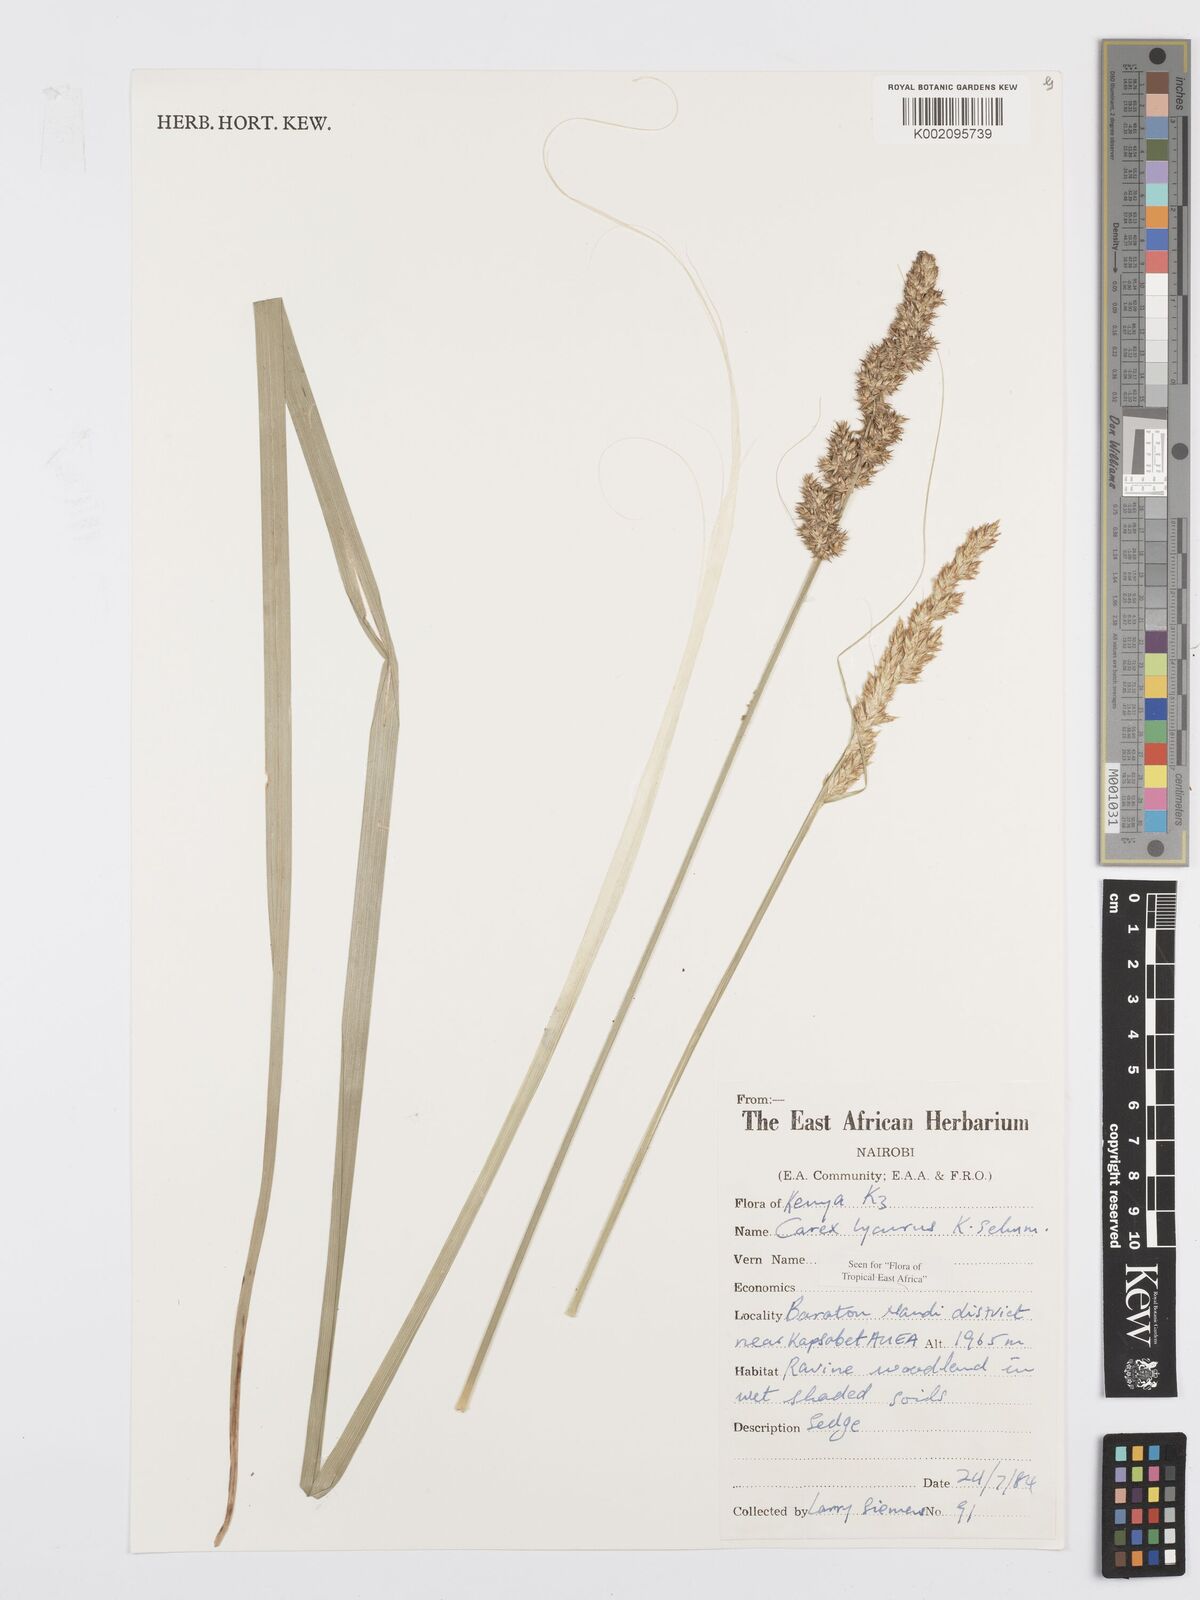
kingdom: Plantae
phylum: Tracheophyta
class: Liliopsida
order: Poales
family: Cyperaceae
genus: Carex
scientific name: Carex lycurus
